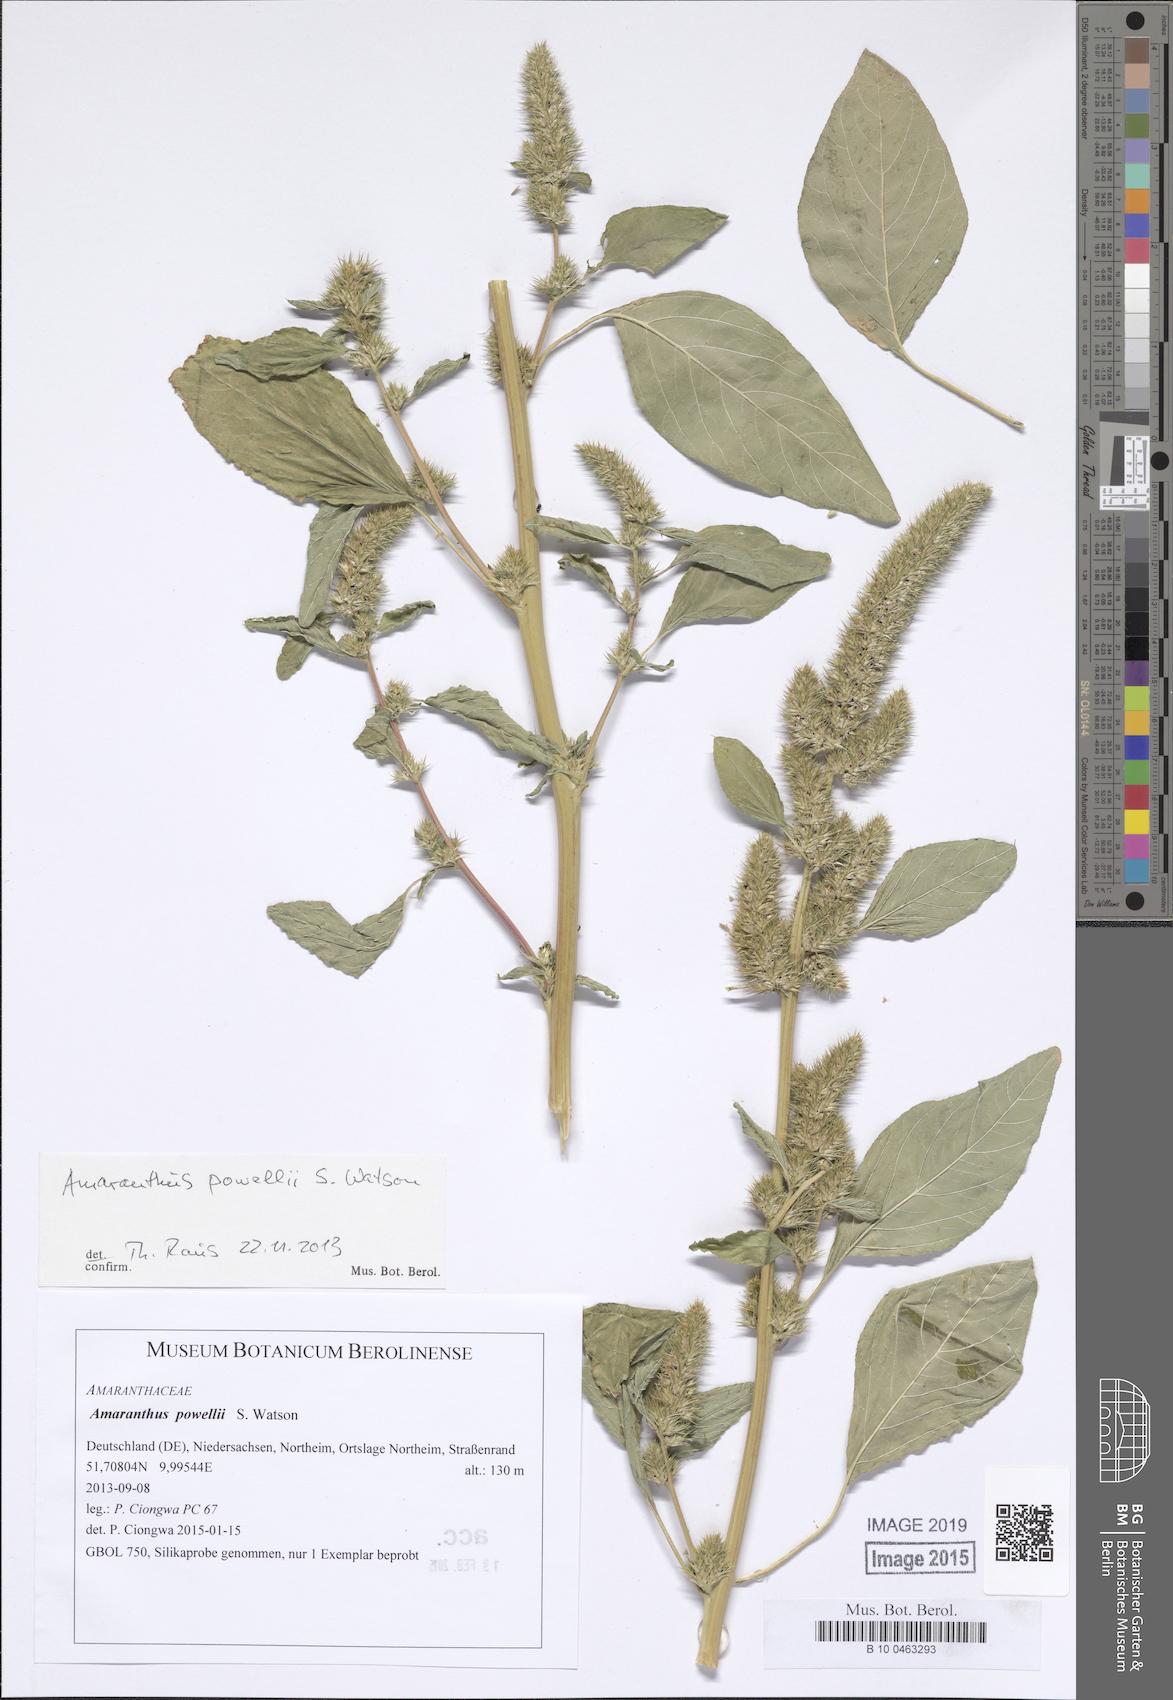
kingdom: Plantae
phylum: Tracheophyta
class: Magnoliopsida
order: Caryophyllales
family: Amaranthaceae
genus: Amaranthus
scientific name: Amaranthus powellii
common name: Powell's amaranth
